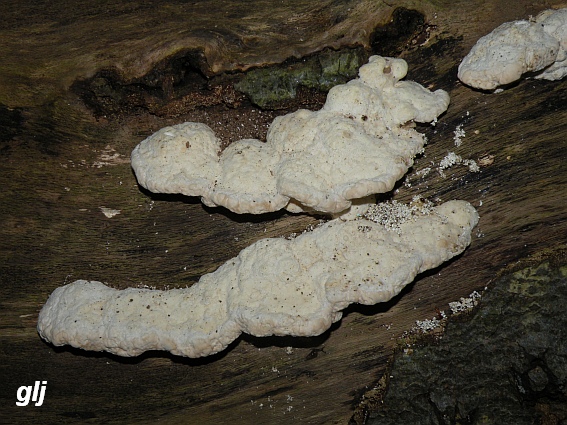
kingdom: Fungi
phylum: Basidiomycota
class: Agaricomycetes
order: Polyporales
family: Polyporaceae
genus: Trametes
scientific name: Trametes gibbosa
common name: puklet læderporesvamp
